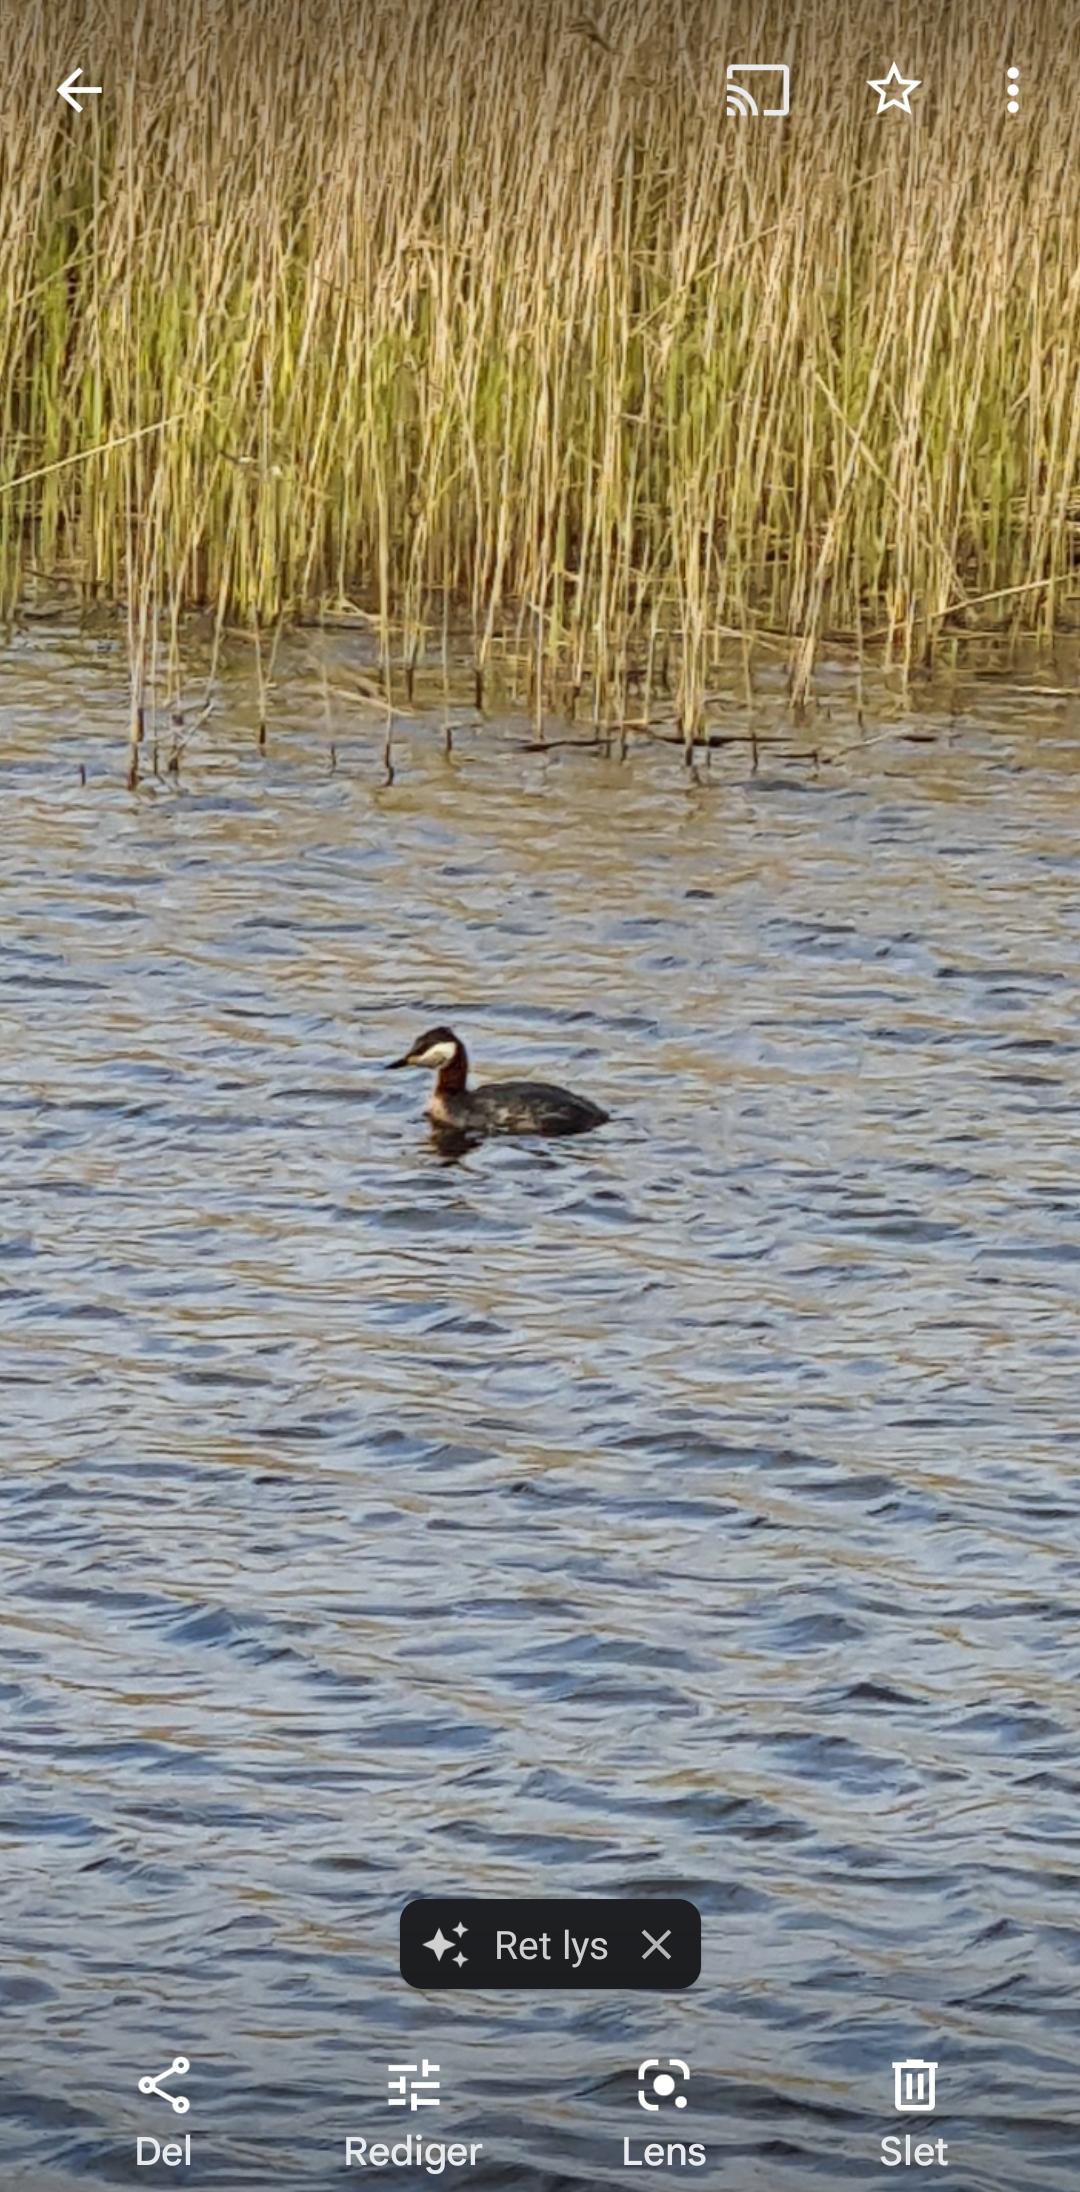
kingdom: Animalia
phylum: Chordata
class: Aves
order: Podicipediformes
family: Podicipedidae
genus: Podiceps
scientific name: Podiceps grisegena
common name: Gråstrubet lappedykker
